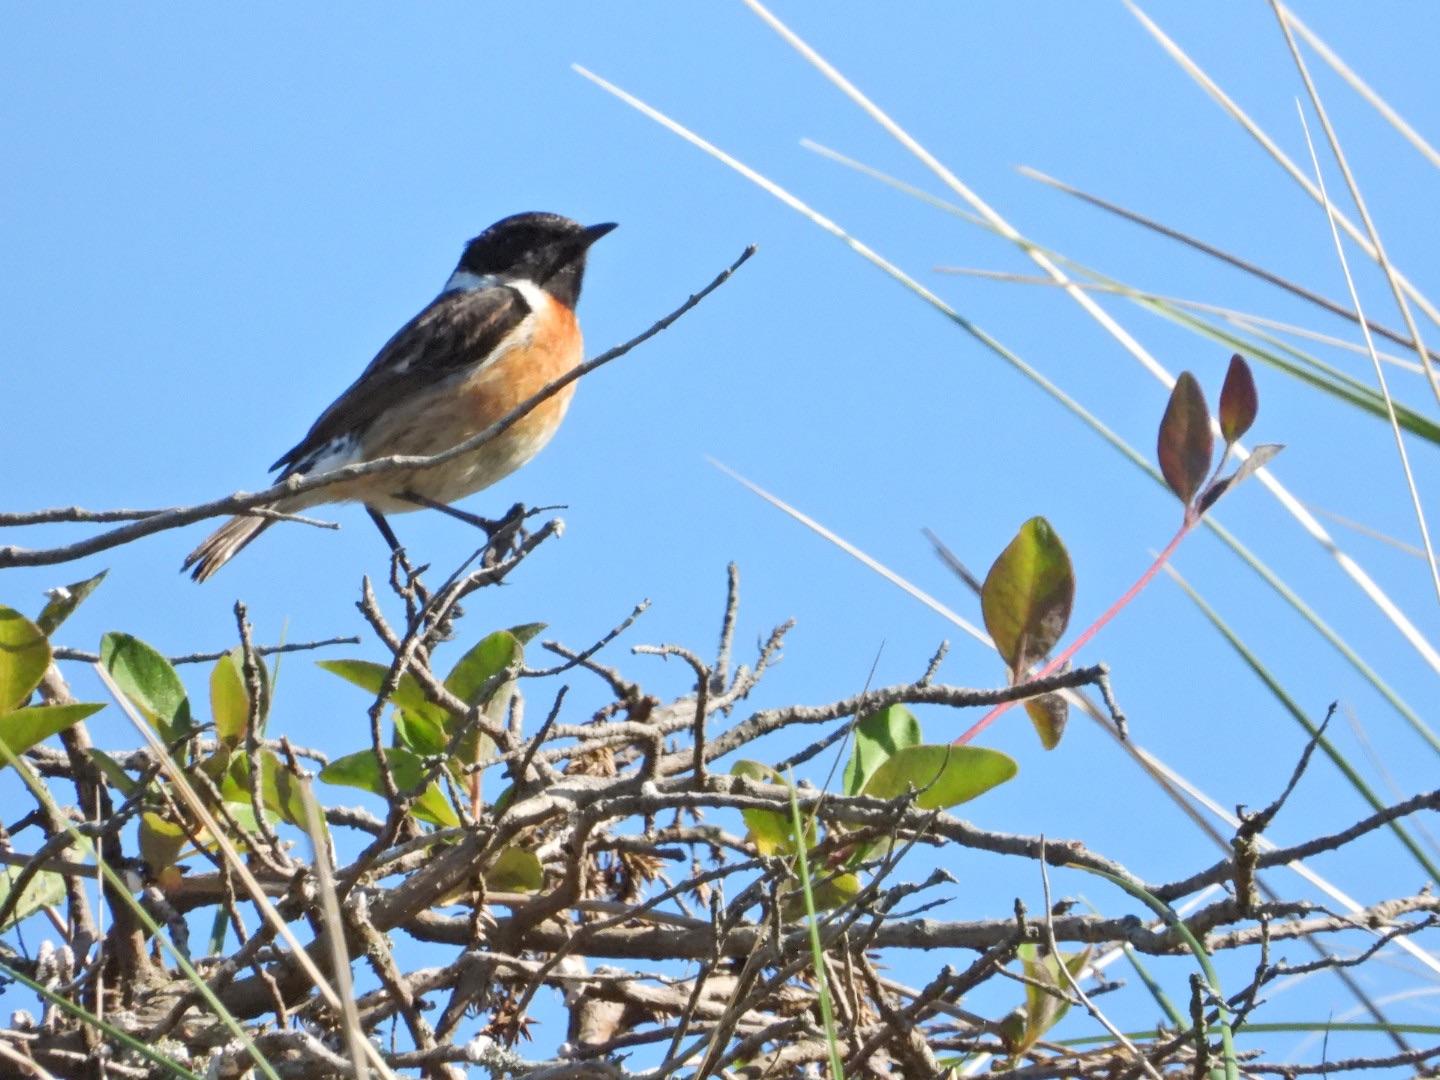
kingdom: Animalia
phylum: Chordata
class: Aves
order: Passeriformes
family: Muscicapidae
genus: Saxicola
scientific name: Saxicola rubicola
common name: Sortstrubet bynkefugl
